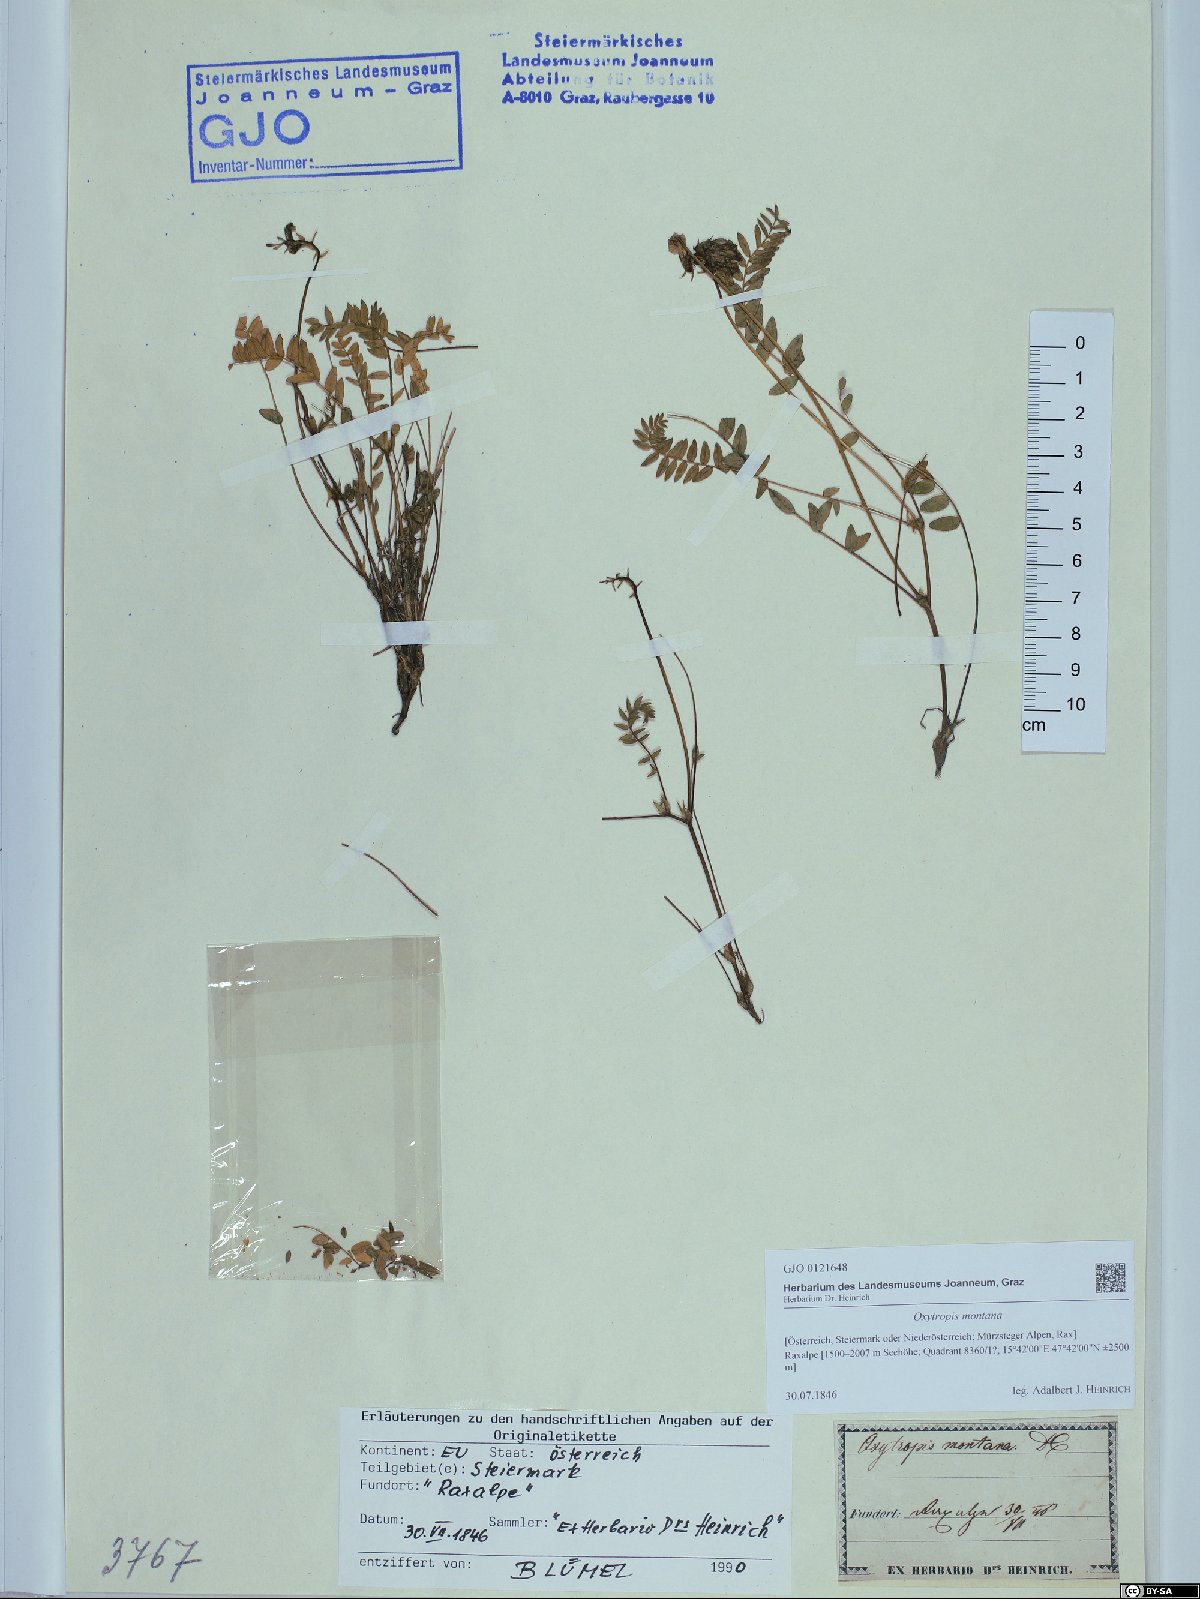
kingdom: Plantae
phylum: Tracheophyta
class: Magnoliopsida
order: Fabales
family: Fabaceae
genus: Oxytropis
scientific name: Oxytropis montana
